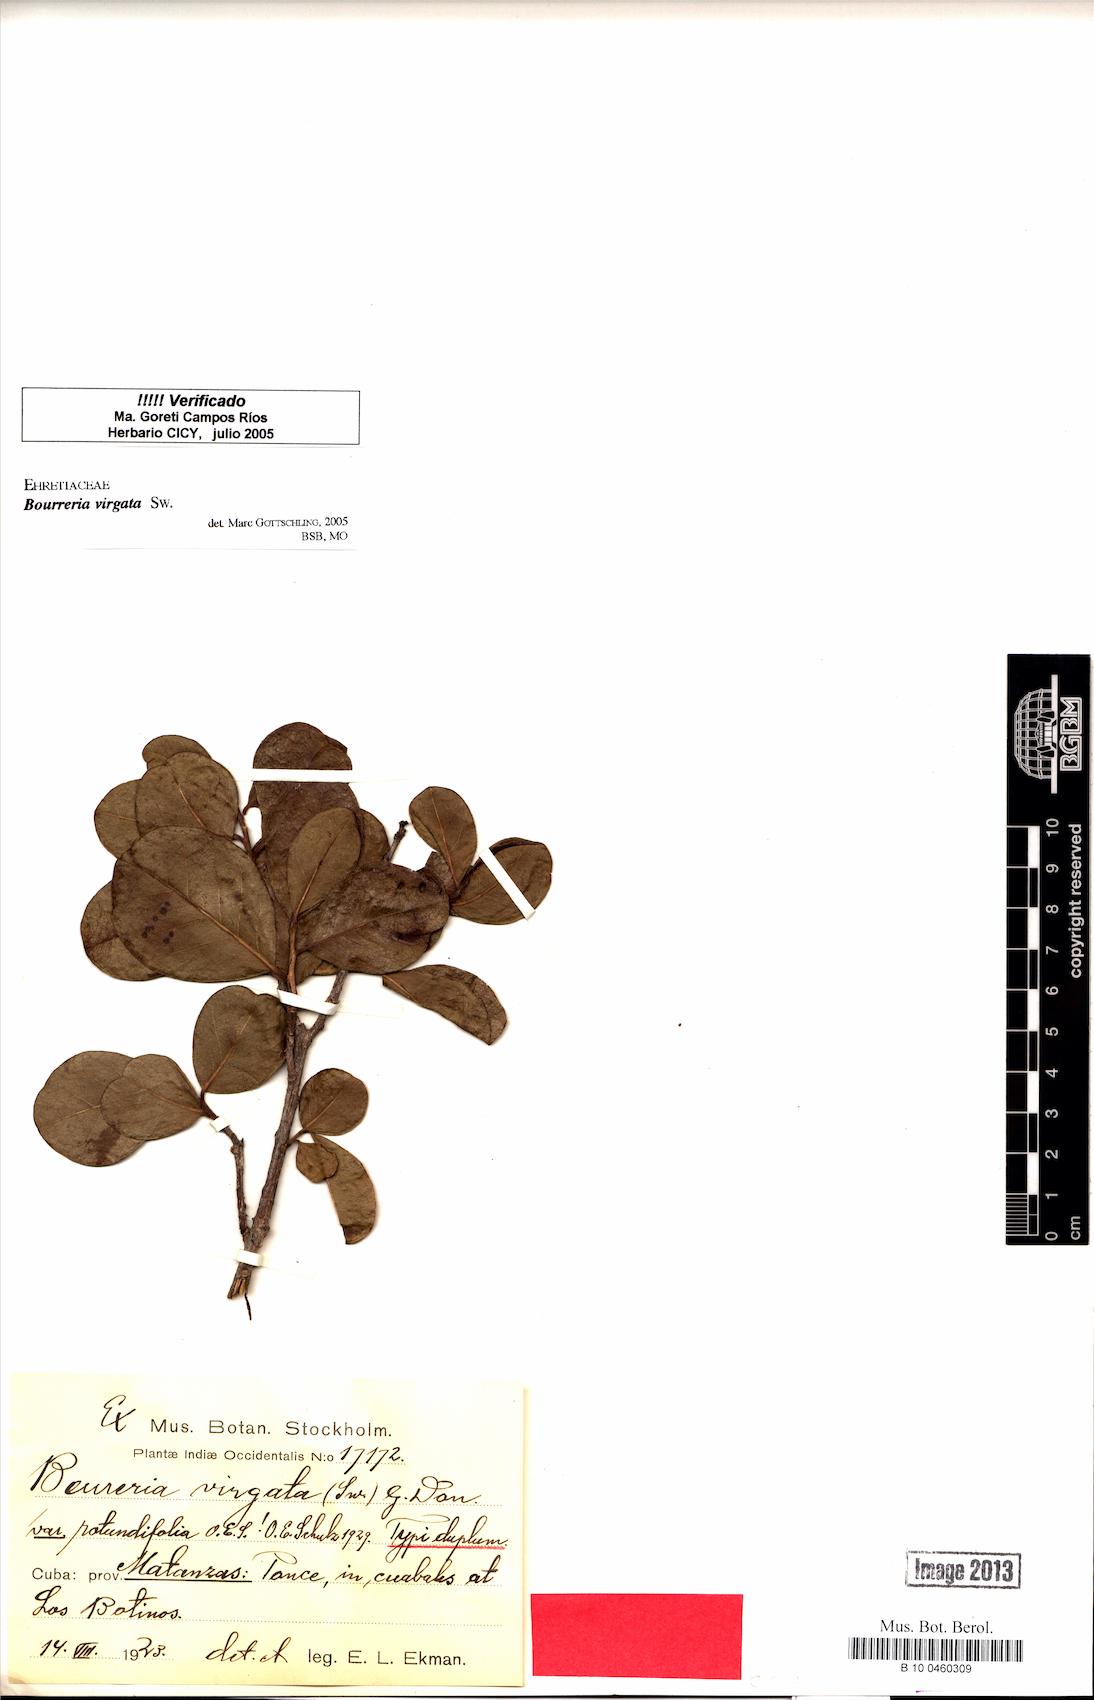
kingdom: Plantae
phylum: Tracheophyta
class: Magnoliopsida
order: Boraginales
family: Ehretiaceae
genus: Bourreria
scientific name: Bourreria virgata
